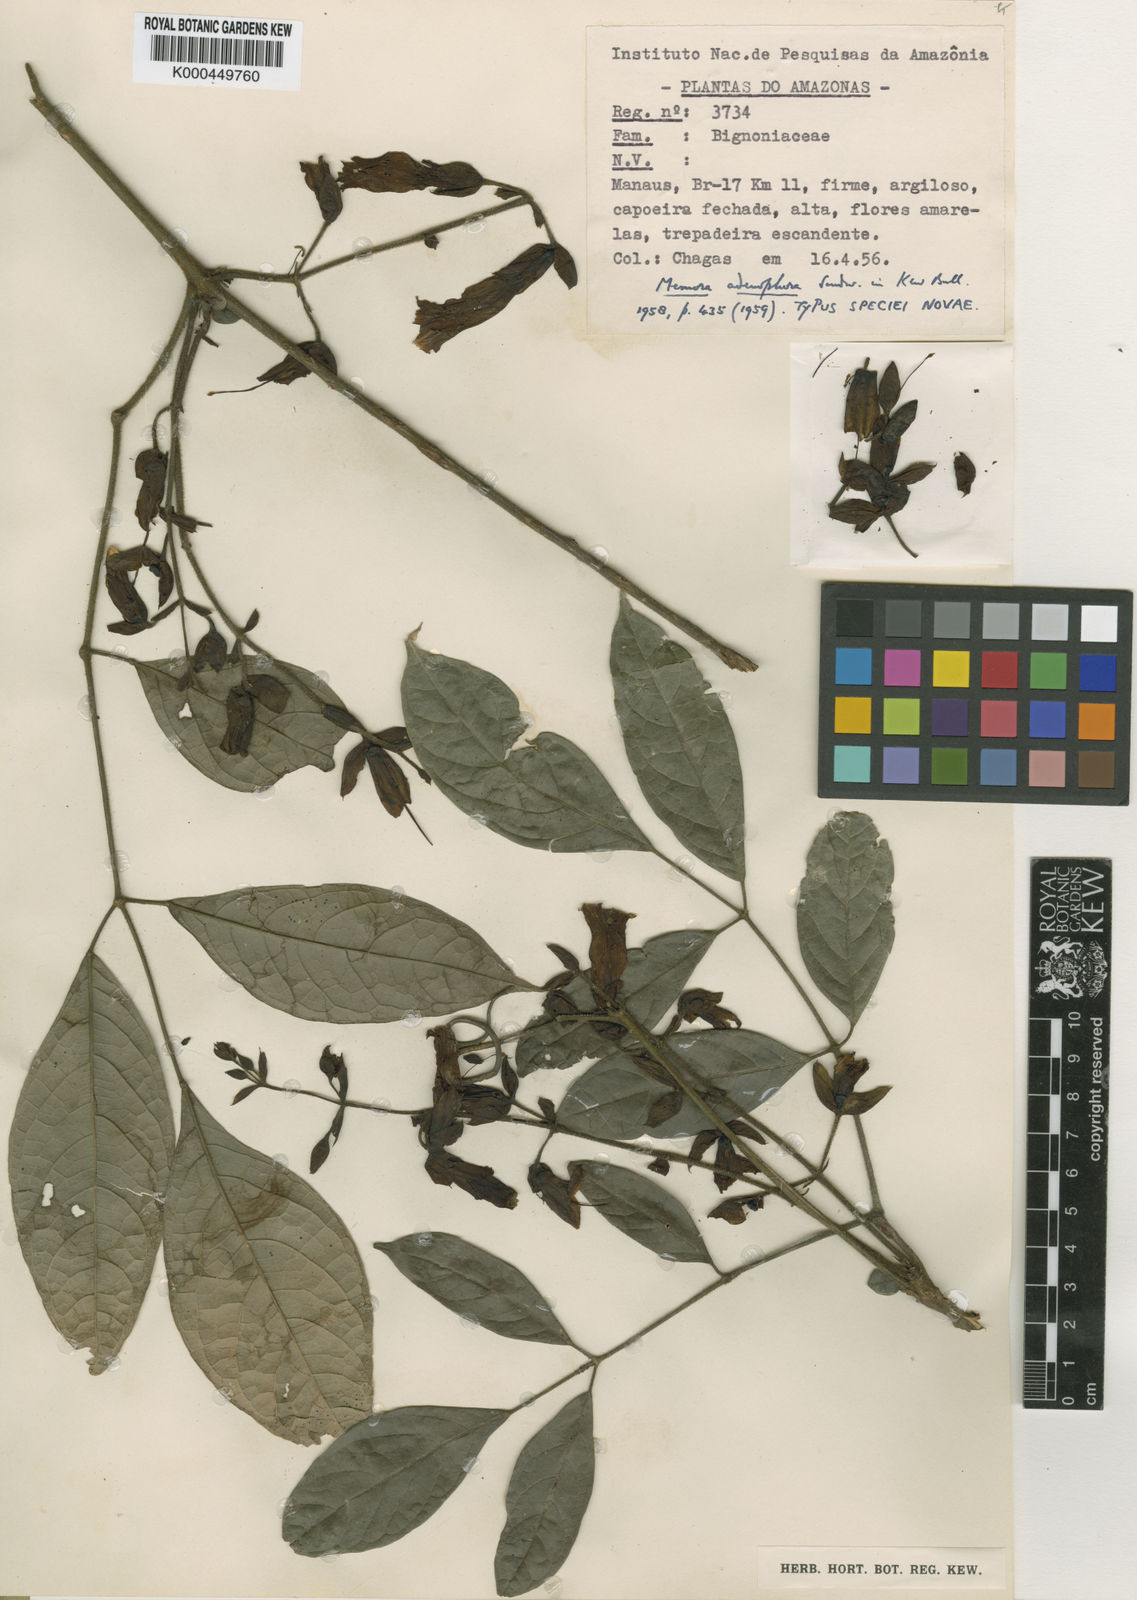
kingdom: Plantae
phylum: Tracheophyta
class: Magnoliopsida
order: Lamiales
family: Bignoniaceae
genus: Adenocalymma
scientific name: Adenocalymma adenophorum
